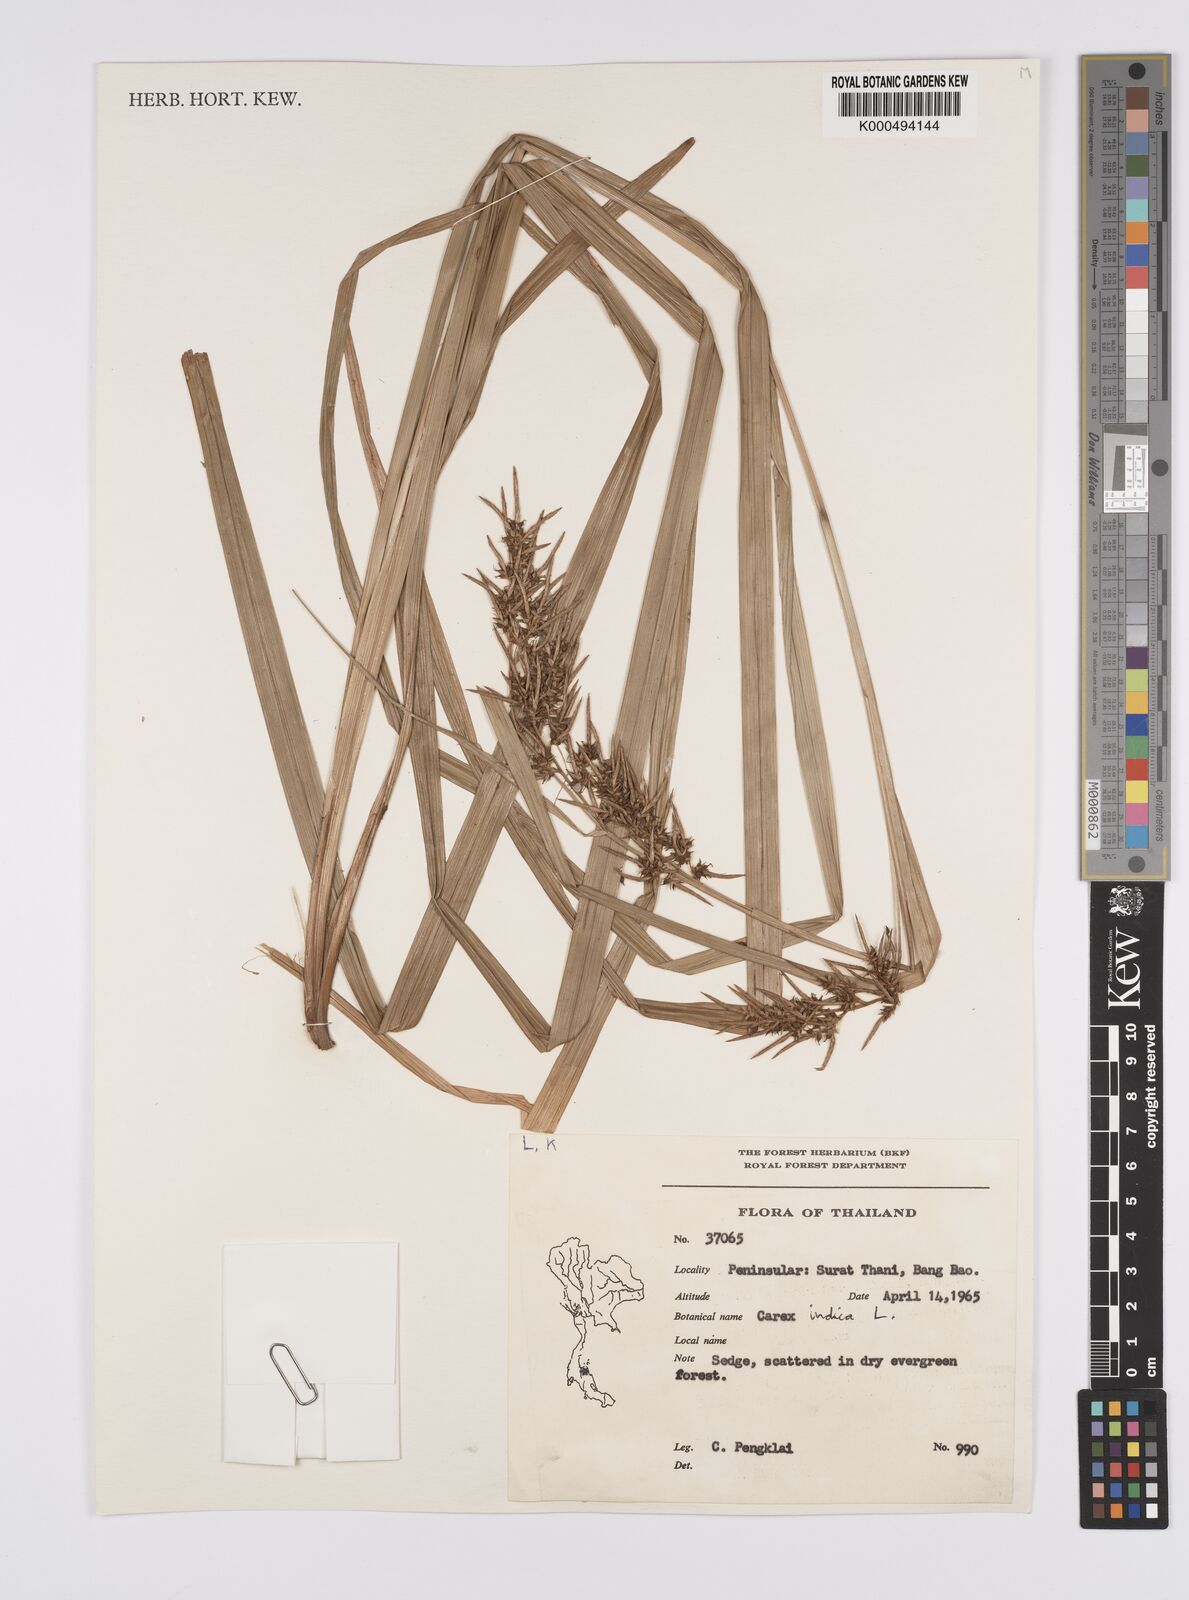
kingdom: Plantae
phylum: Tracheophyta
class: Liliopsida
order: Poales
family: Cyperaceae
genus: Carex
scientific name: Carex indica
